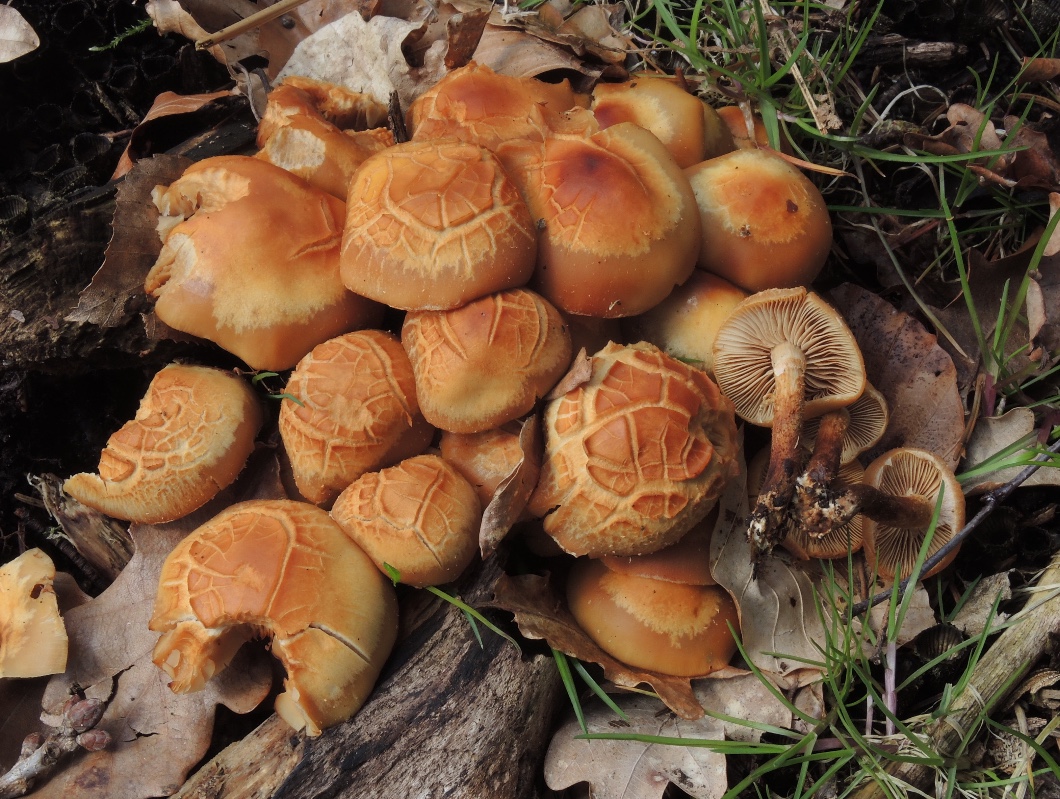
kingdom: Fungi
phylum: Basidiomycota
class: Agaricomycetes
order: Agaricales
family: Strophariaceae
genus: Kuehneromyces
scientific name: Kuehneromyces mutabilis
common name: foranderlig skælhat
